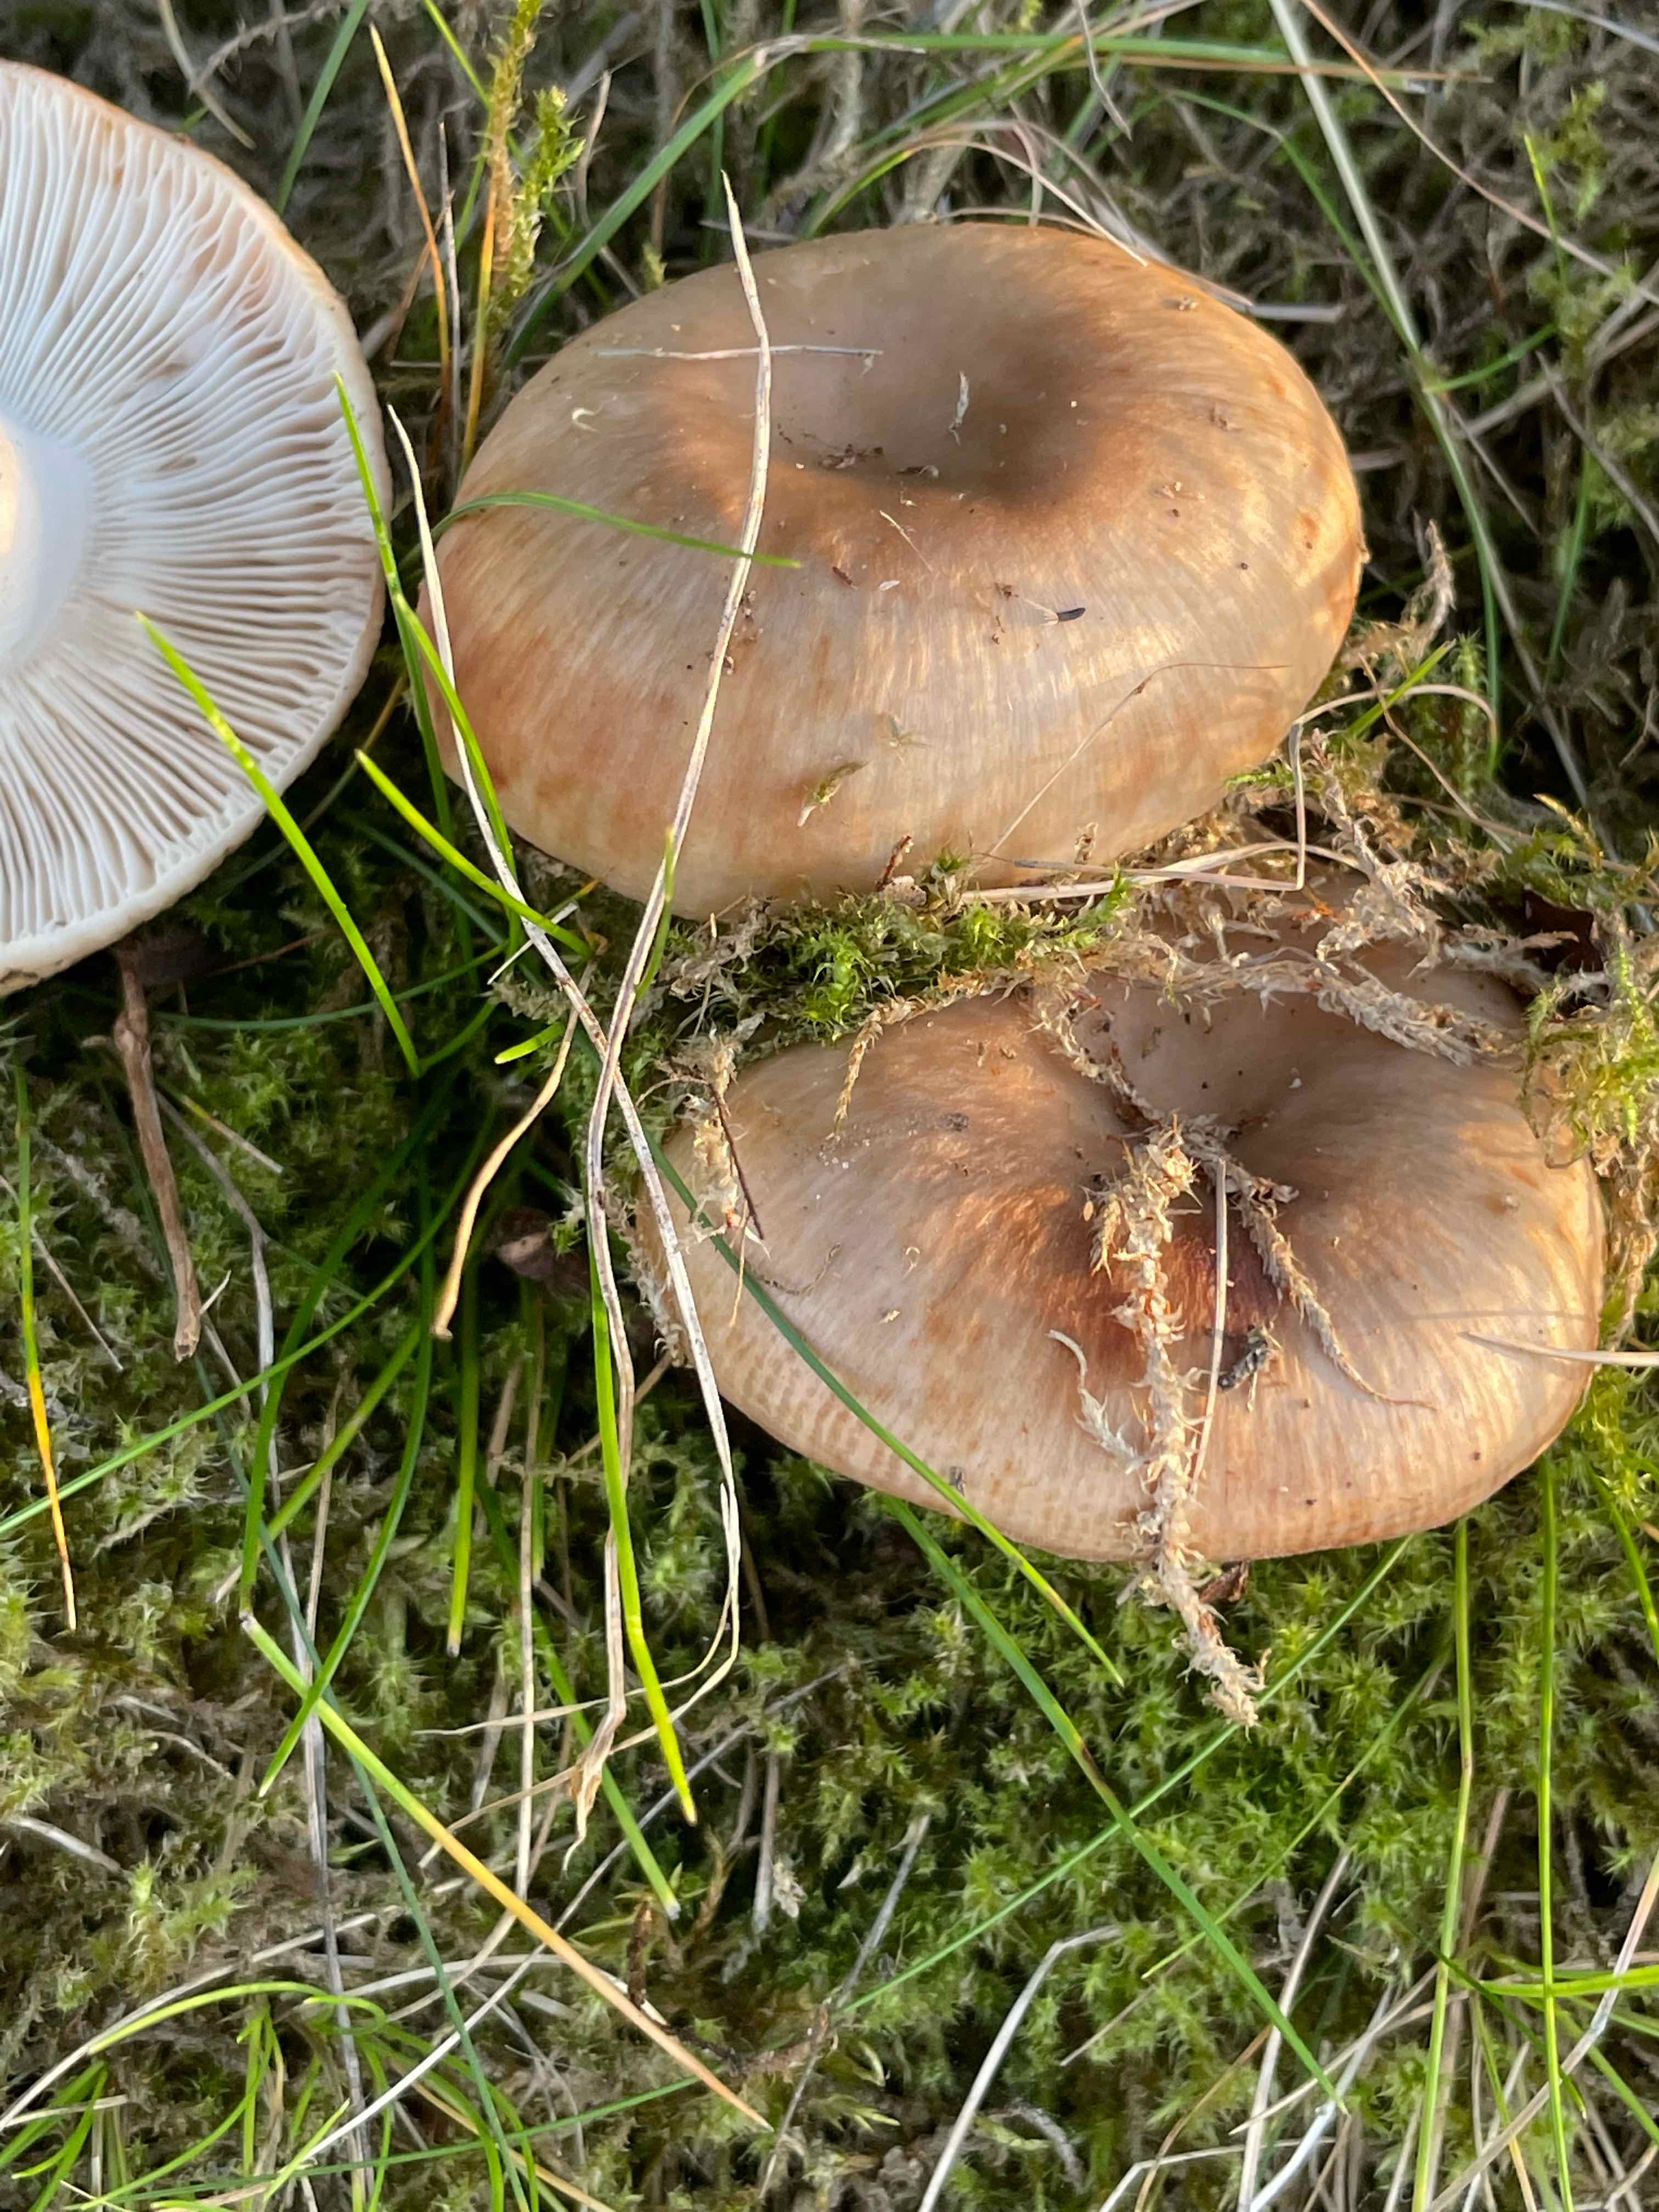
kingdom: Fungi
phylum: Basidiomycota
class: Agaricomycetes
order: Russulales
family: Russulaceae
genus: Russula
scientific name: Russula
